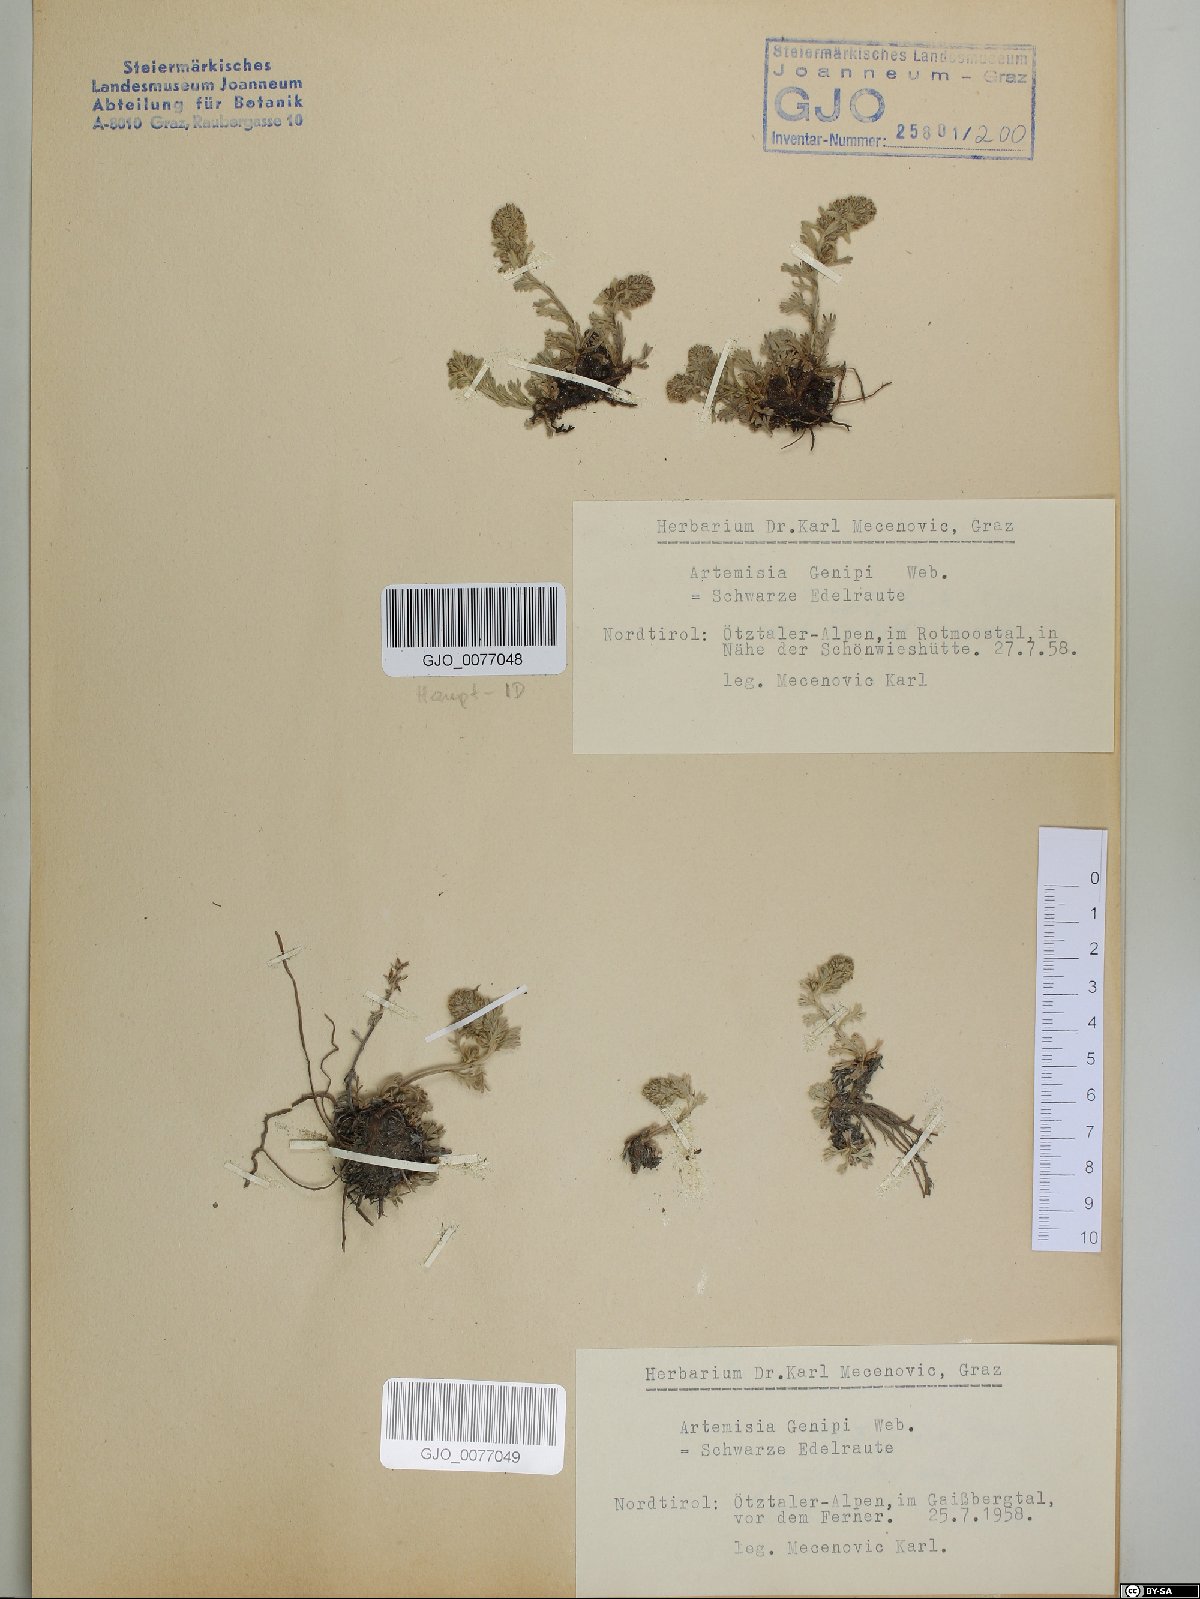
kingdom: Plantae
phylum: Tracheophyta
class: Magnoliopsida
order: Asterales
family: Asteraceae
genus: Artemisia
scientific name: Artemisia genipi
